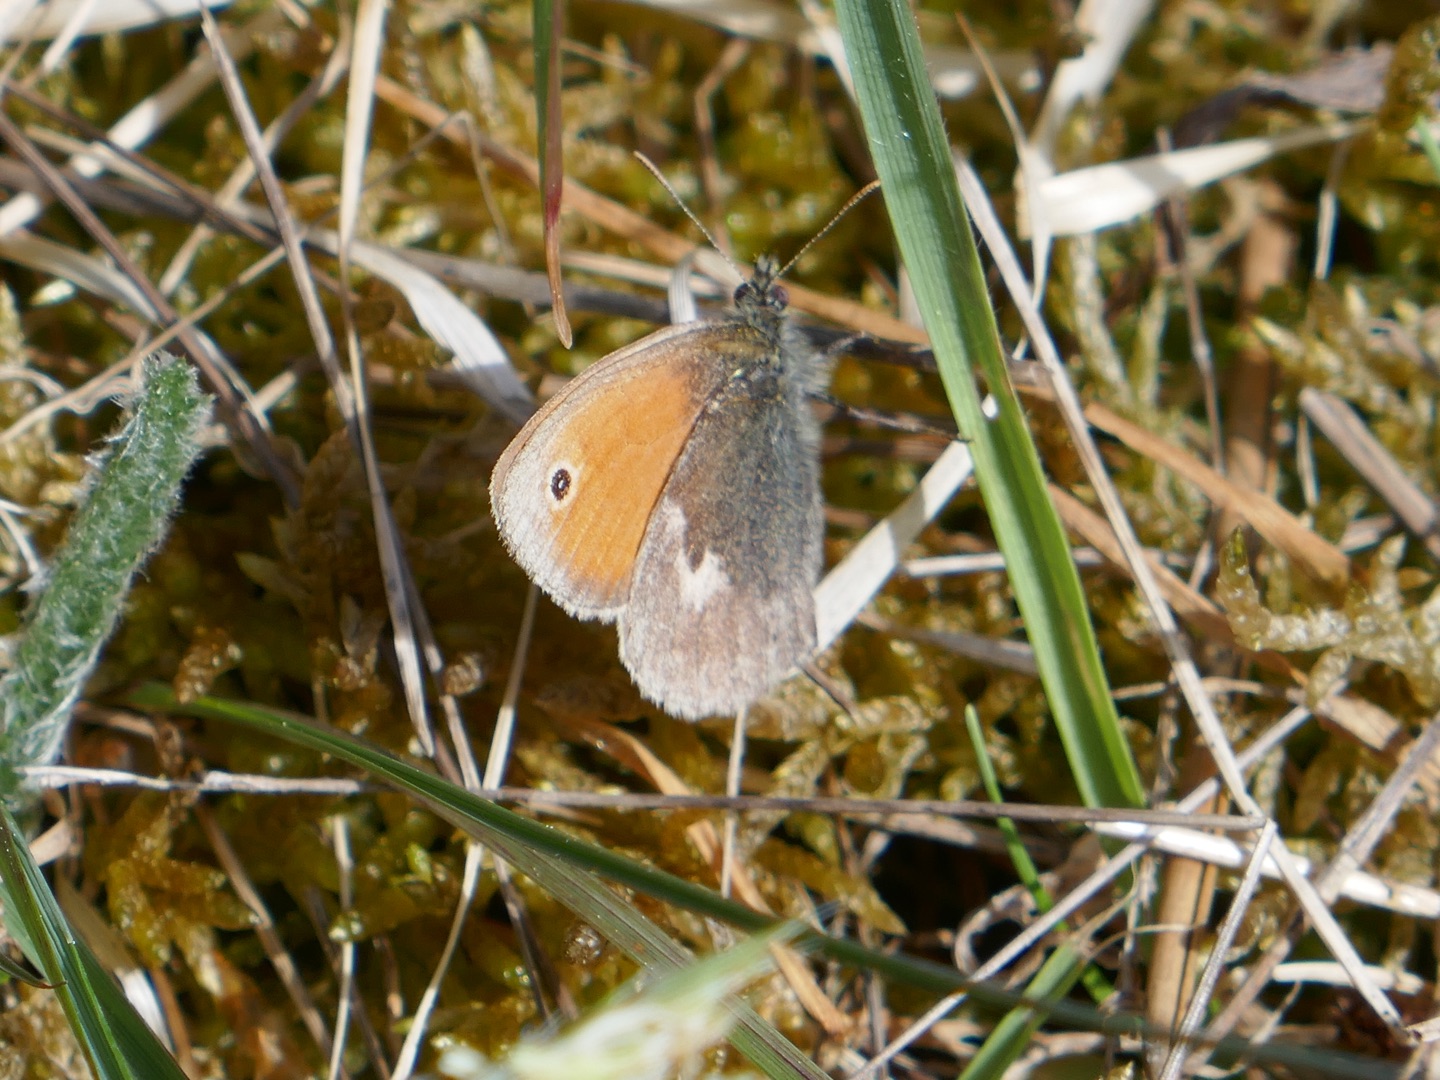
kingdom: Animalia
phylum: Arthropoda
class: Insecta
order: Lepidoptera
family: Nymphalidae
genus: Coenonympha
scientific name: Coenonympha pamphilus
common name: Okkergul randøje
